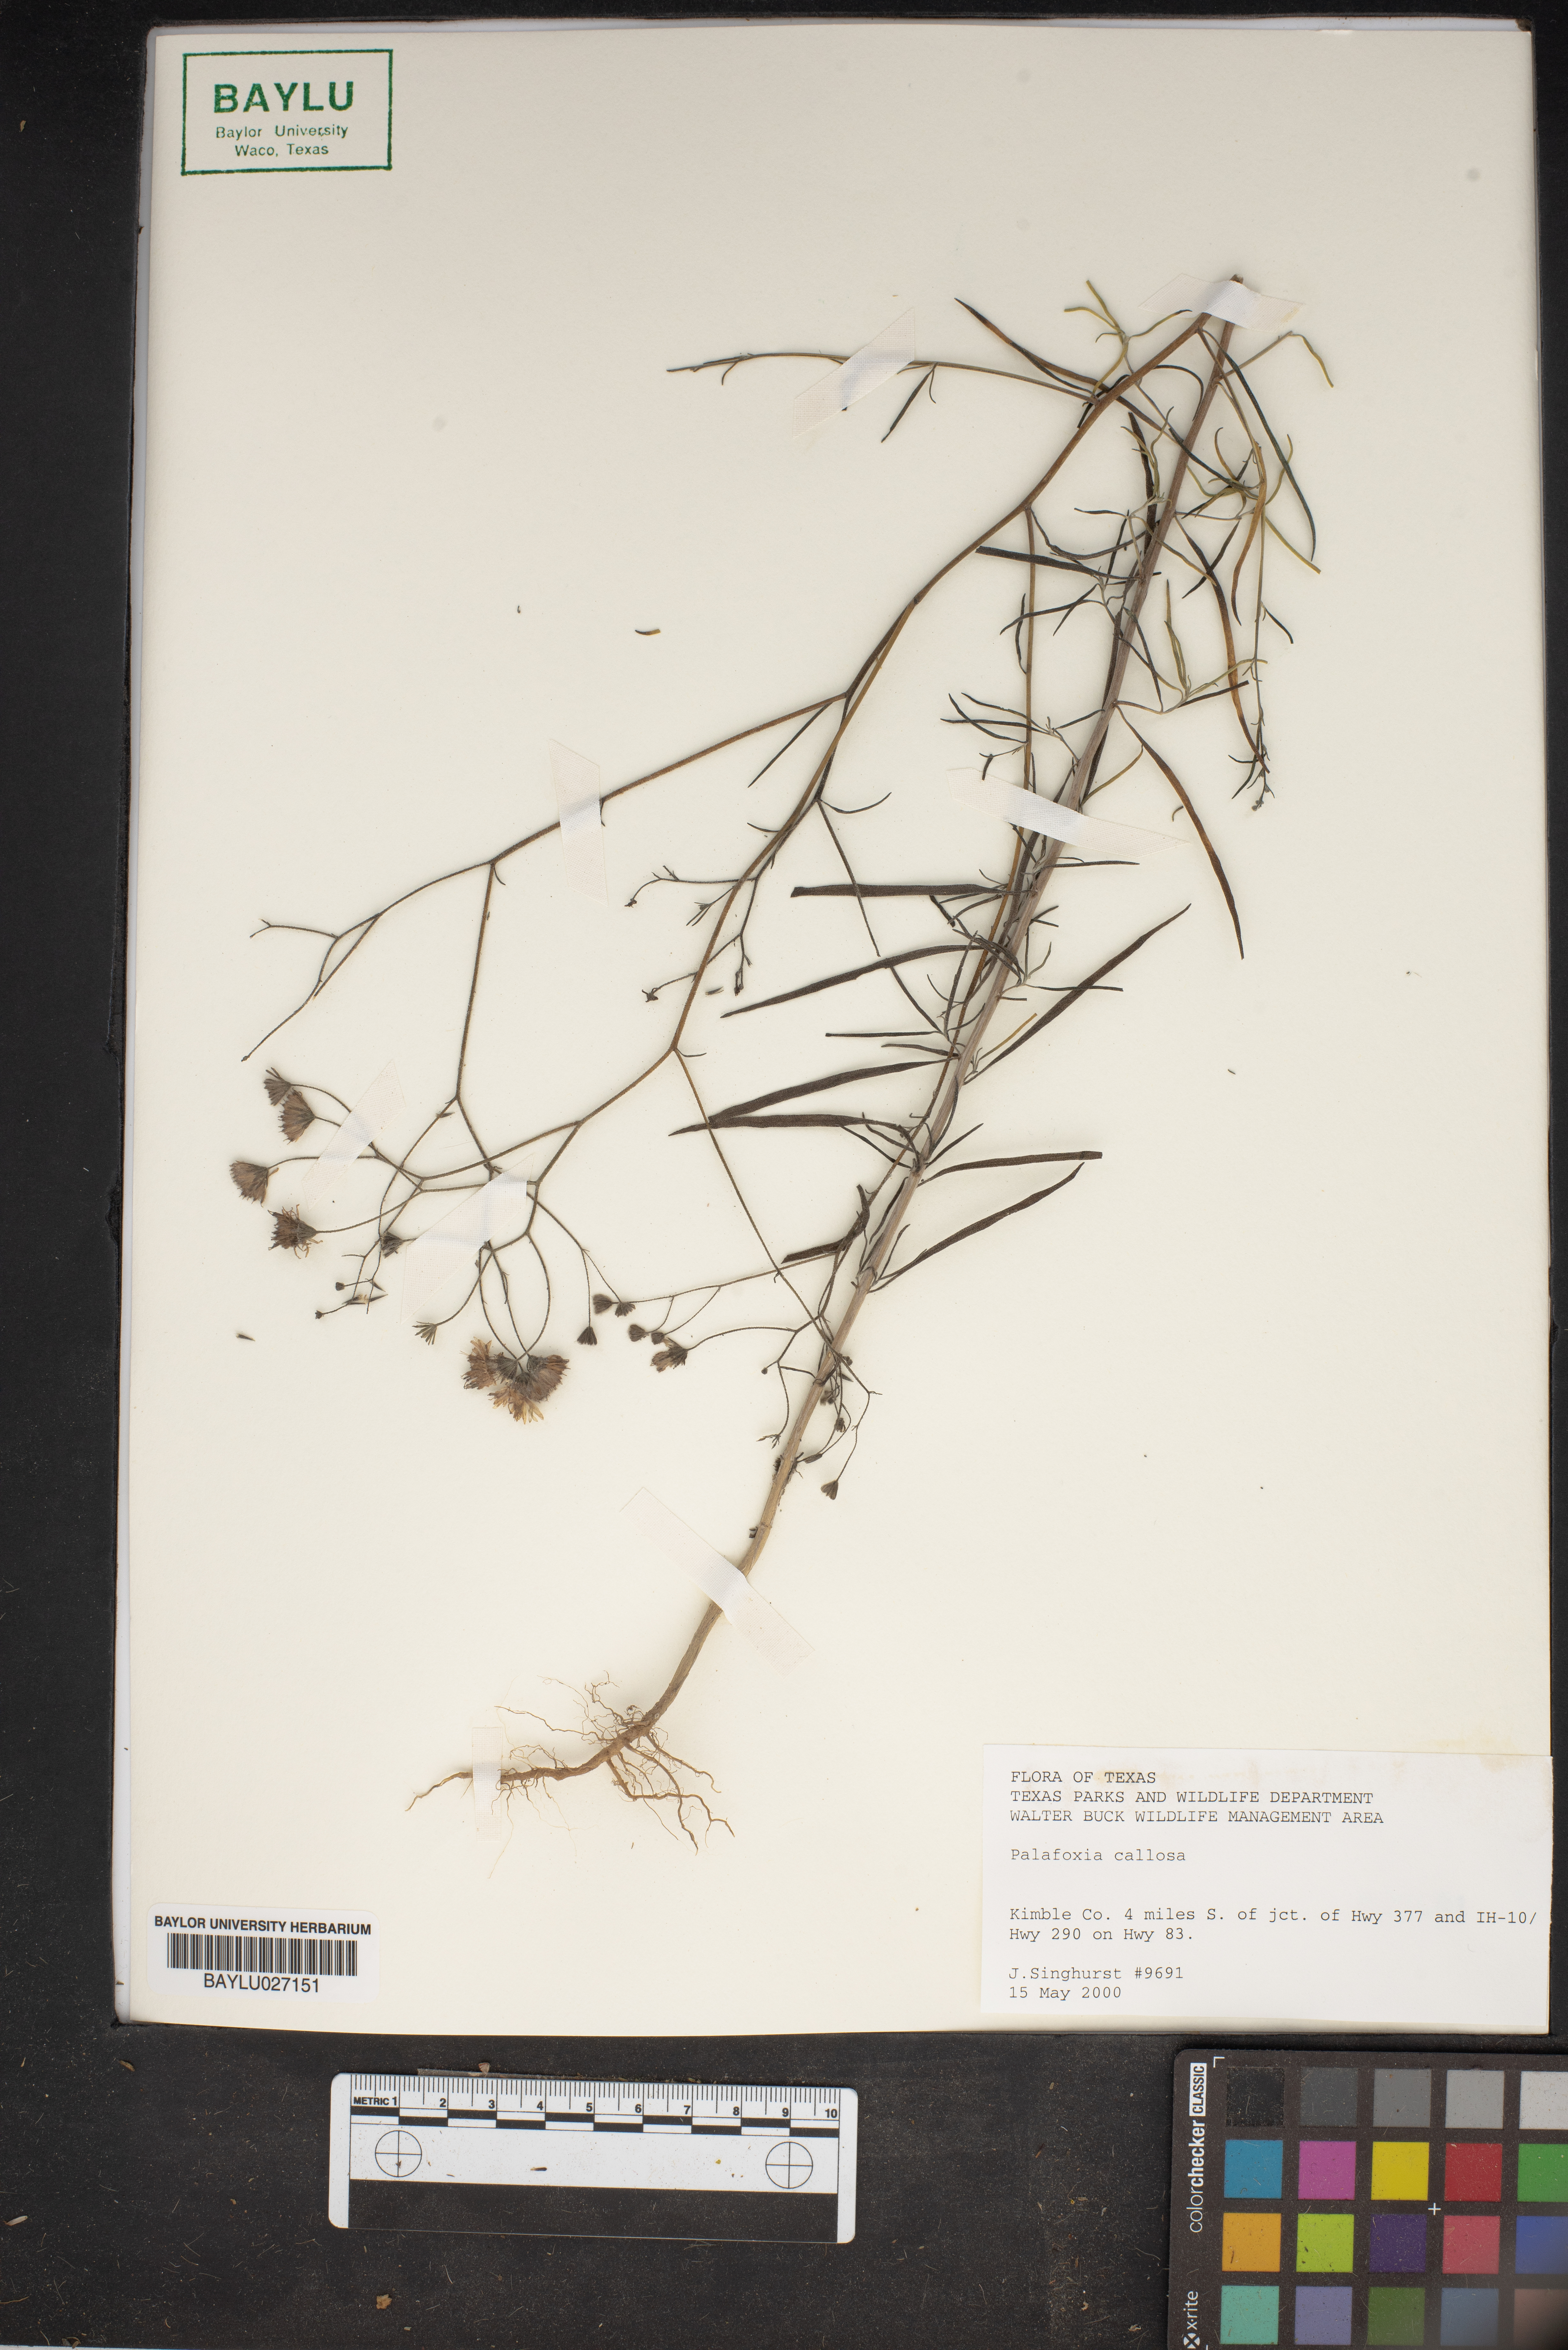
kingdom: Plantae
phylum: Tracheophyta
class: Magnoliopsida
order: Asterales
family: Asteraceae
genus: Palafoxia
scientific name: Palafoxia callosa
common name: Small palafox
